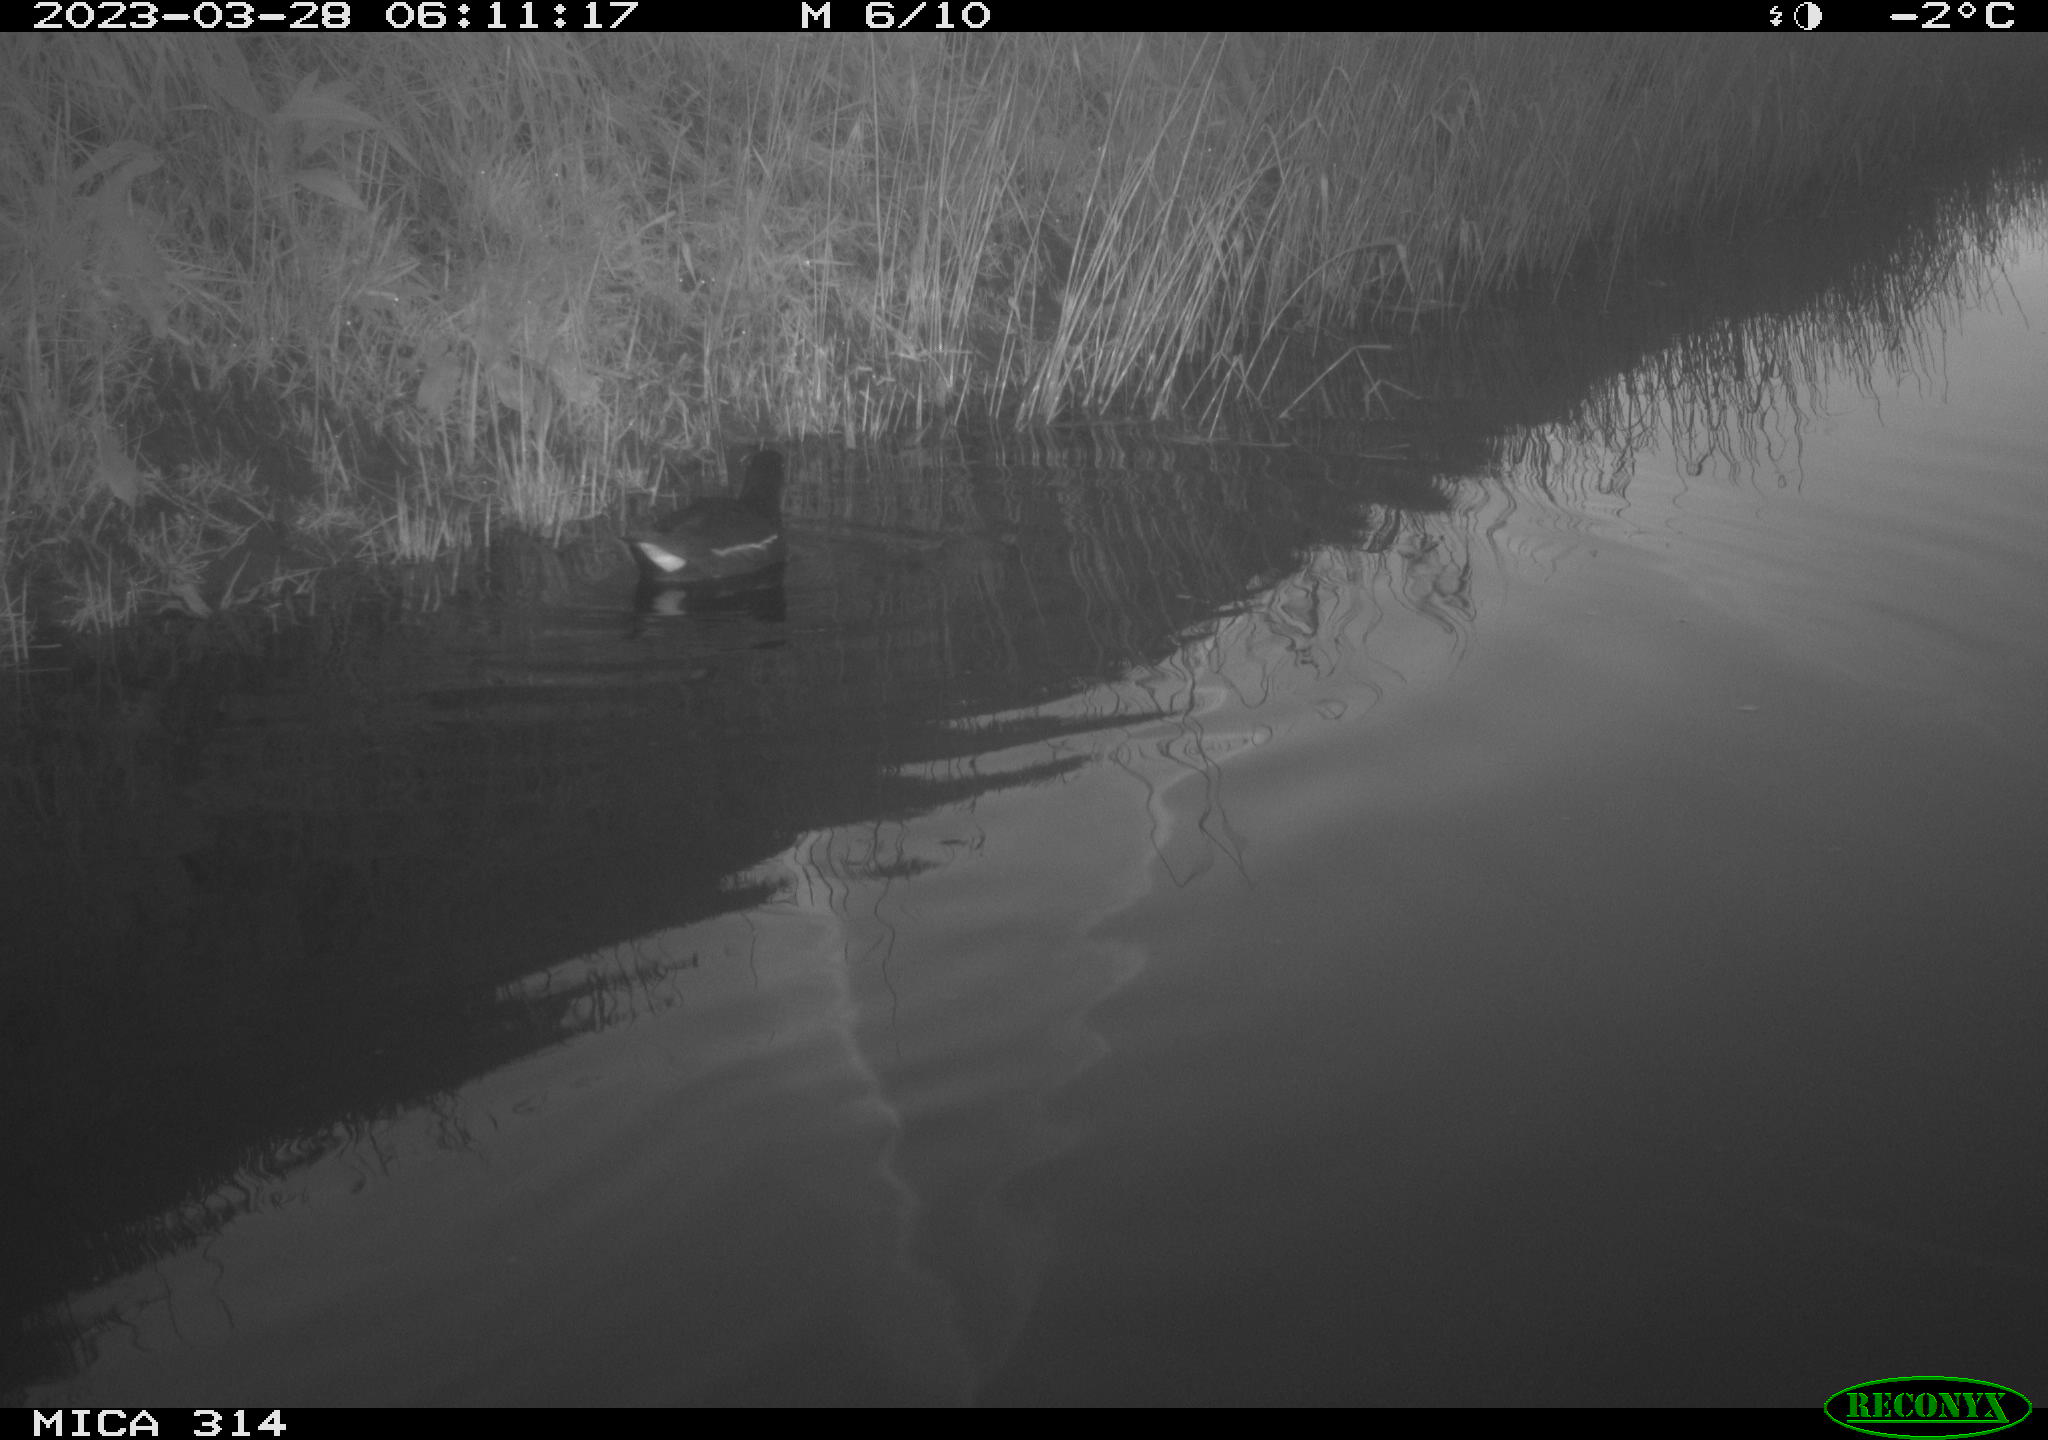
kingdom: Animalia
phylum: Chordata
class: Aves
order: Gruiformes
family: Rallidae
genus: Gallinula
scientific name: Gallinula chloropus
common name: Common moorhen
